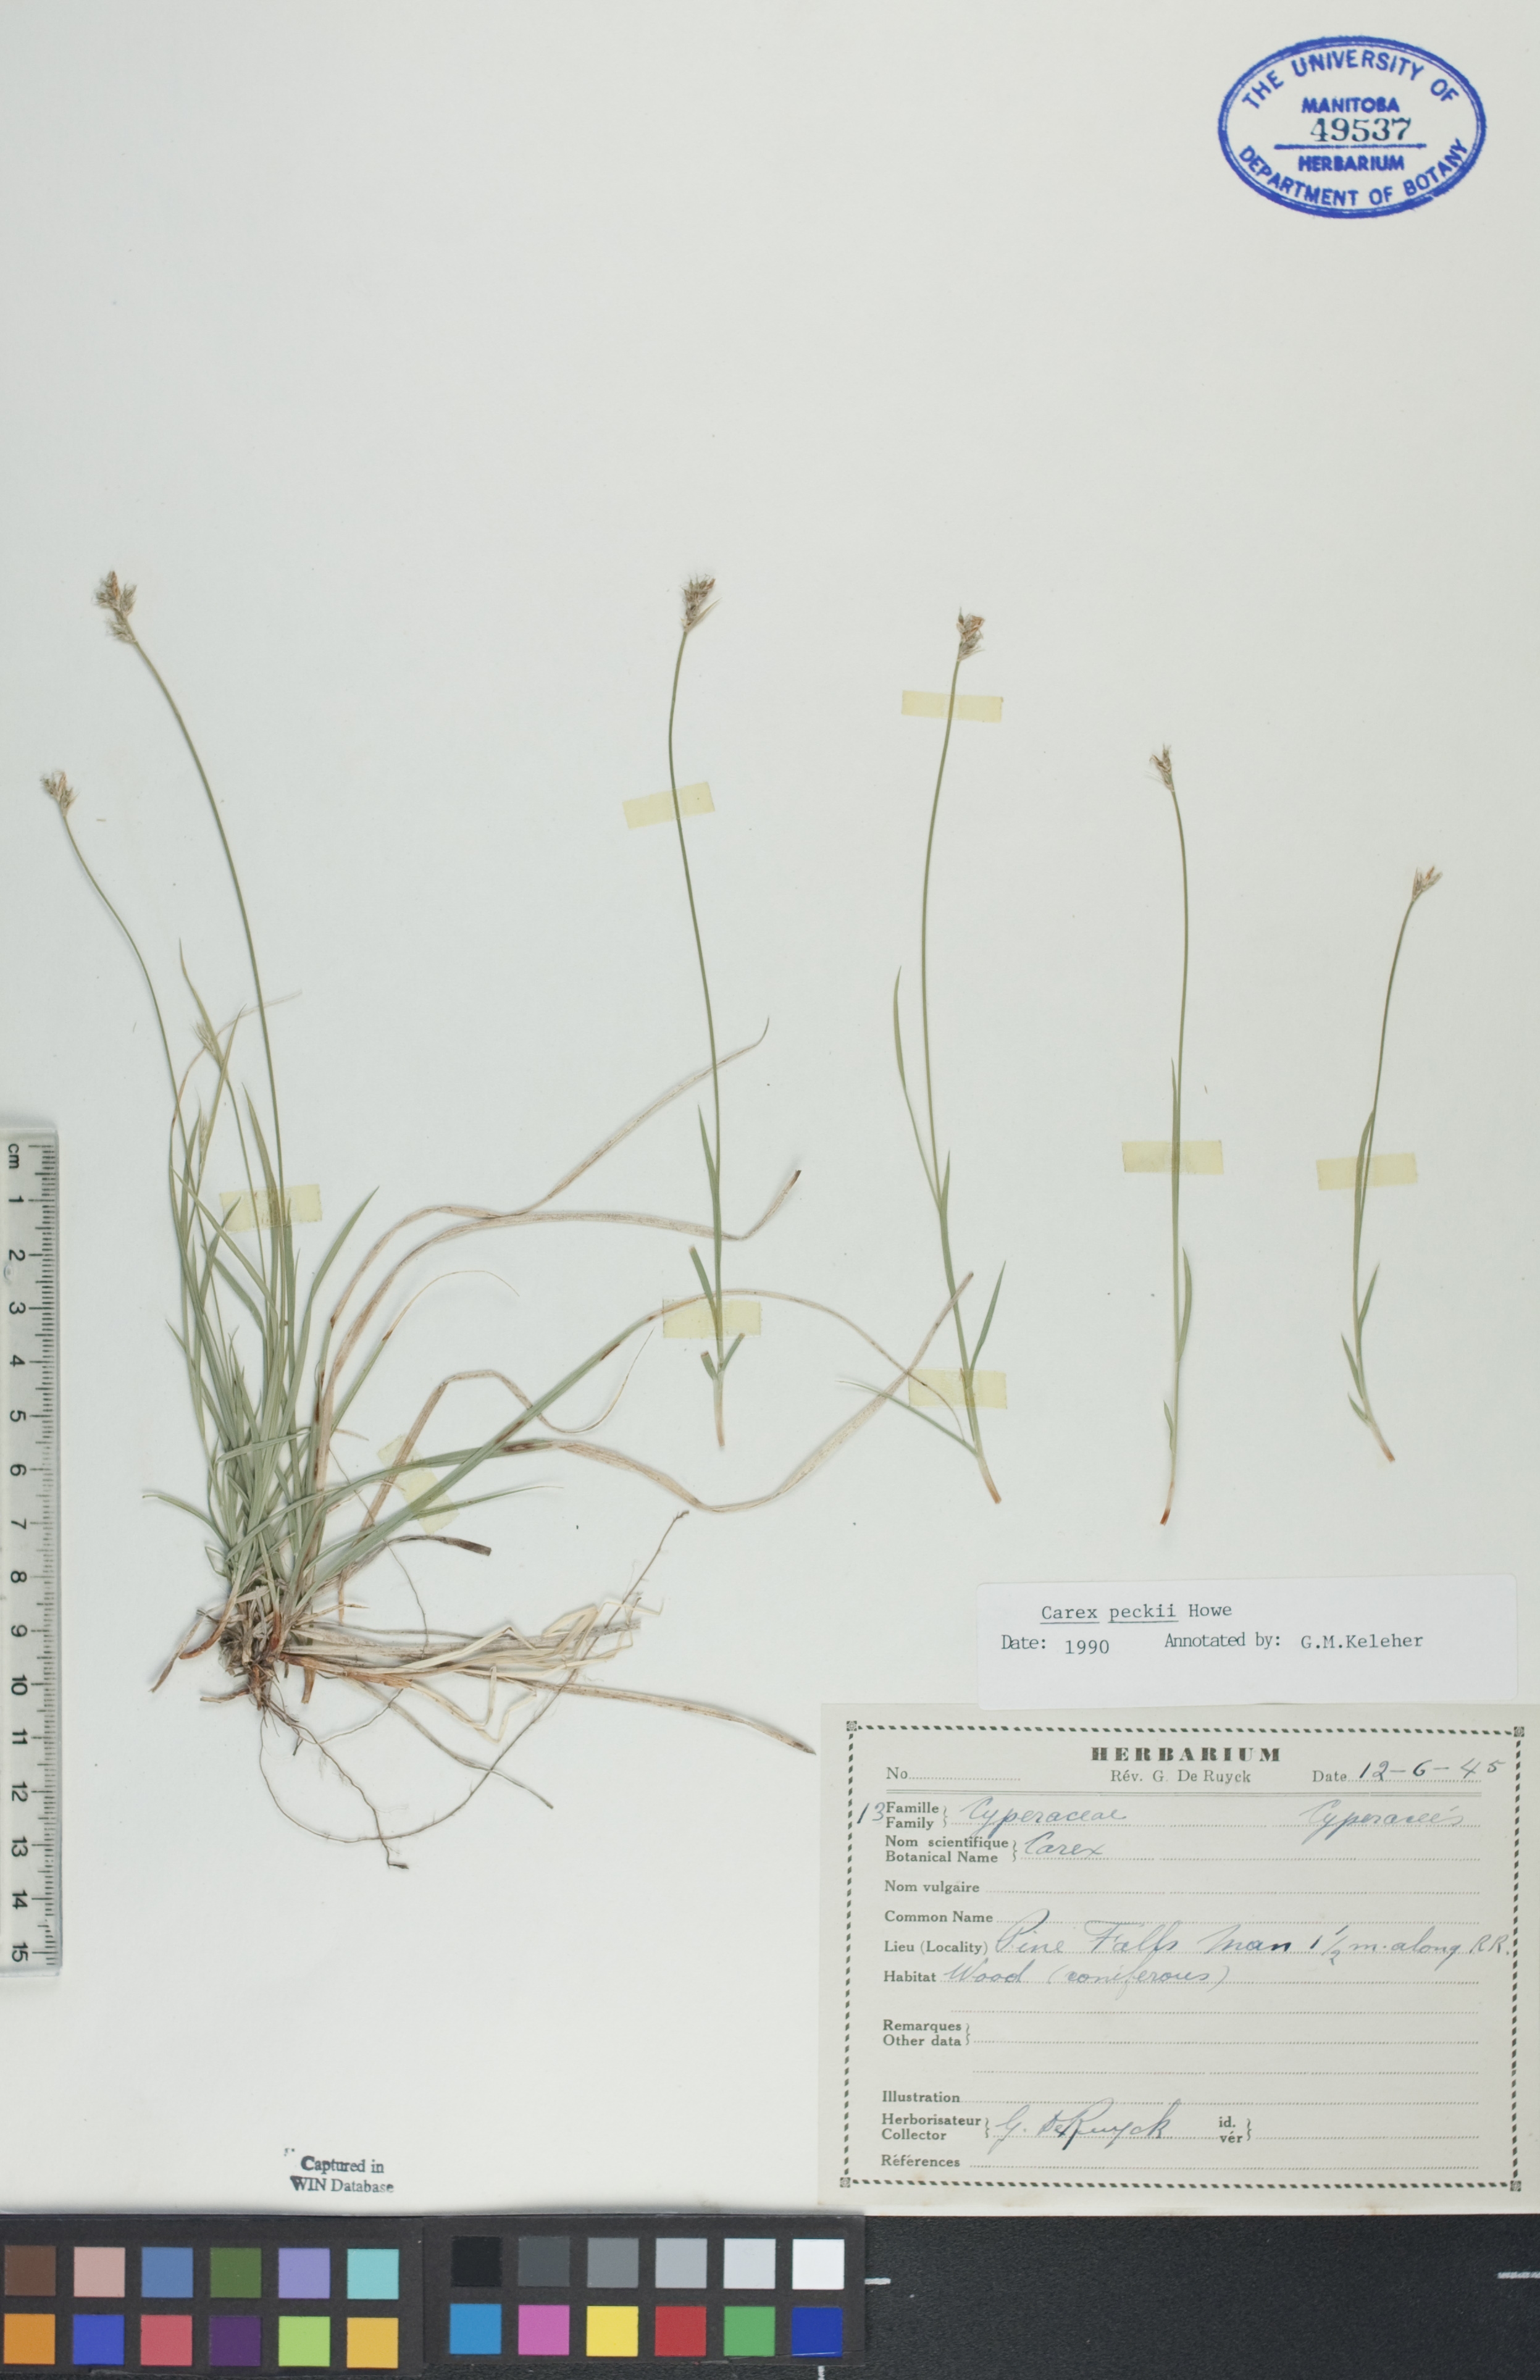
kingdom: Plantae
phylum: Tracheophyta
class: Liliopsida
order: Poales
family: Cyperaceae
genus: Carex
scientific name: Carex peckii
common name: Peck's oak sedge
